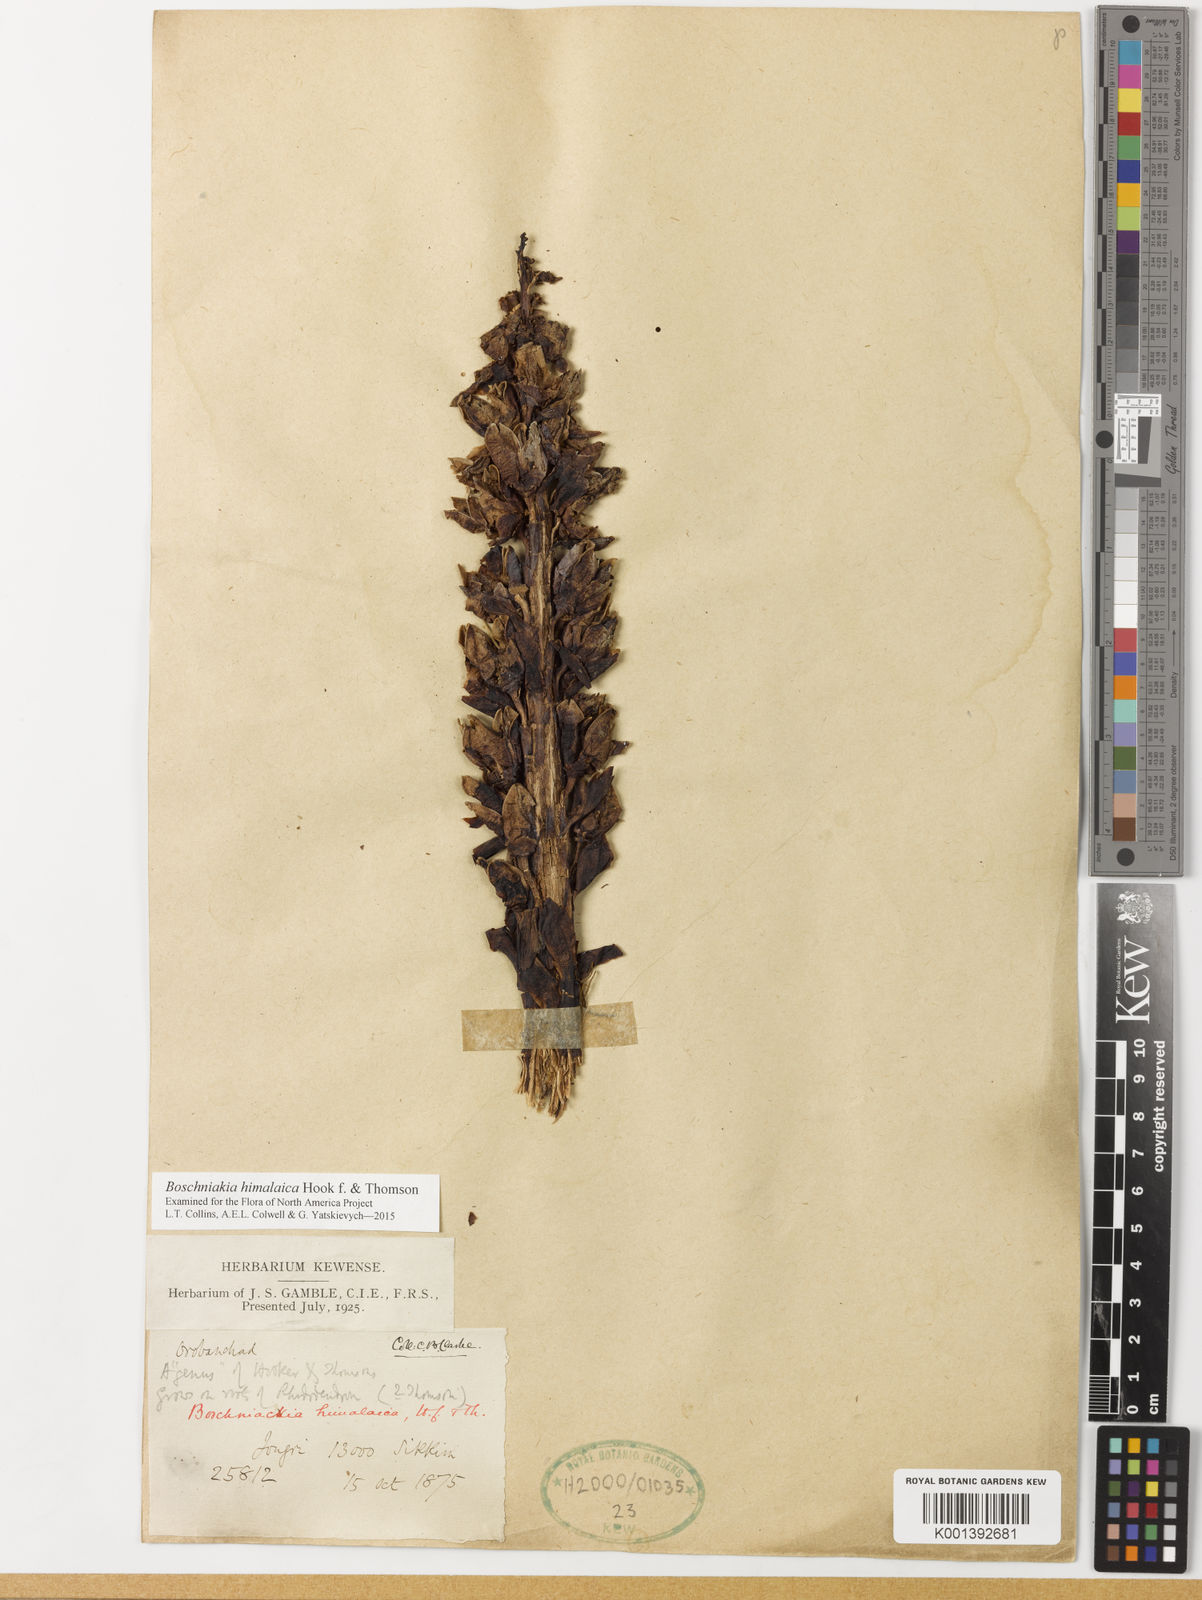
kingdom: Plantae
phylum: Tracheophyta
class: Magnoliopsida
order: Lamiales
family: Orobanchaceae
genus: Boschniakia
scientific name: Boschniakia himalaica
